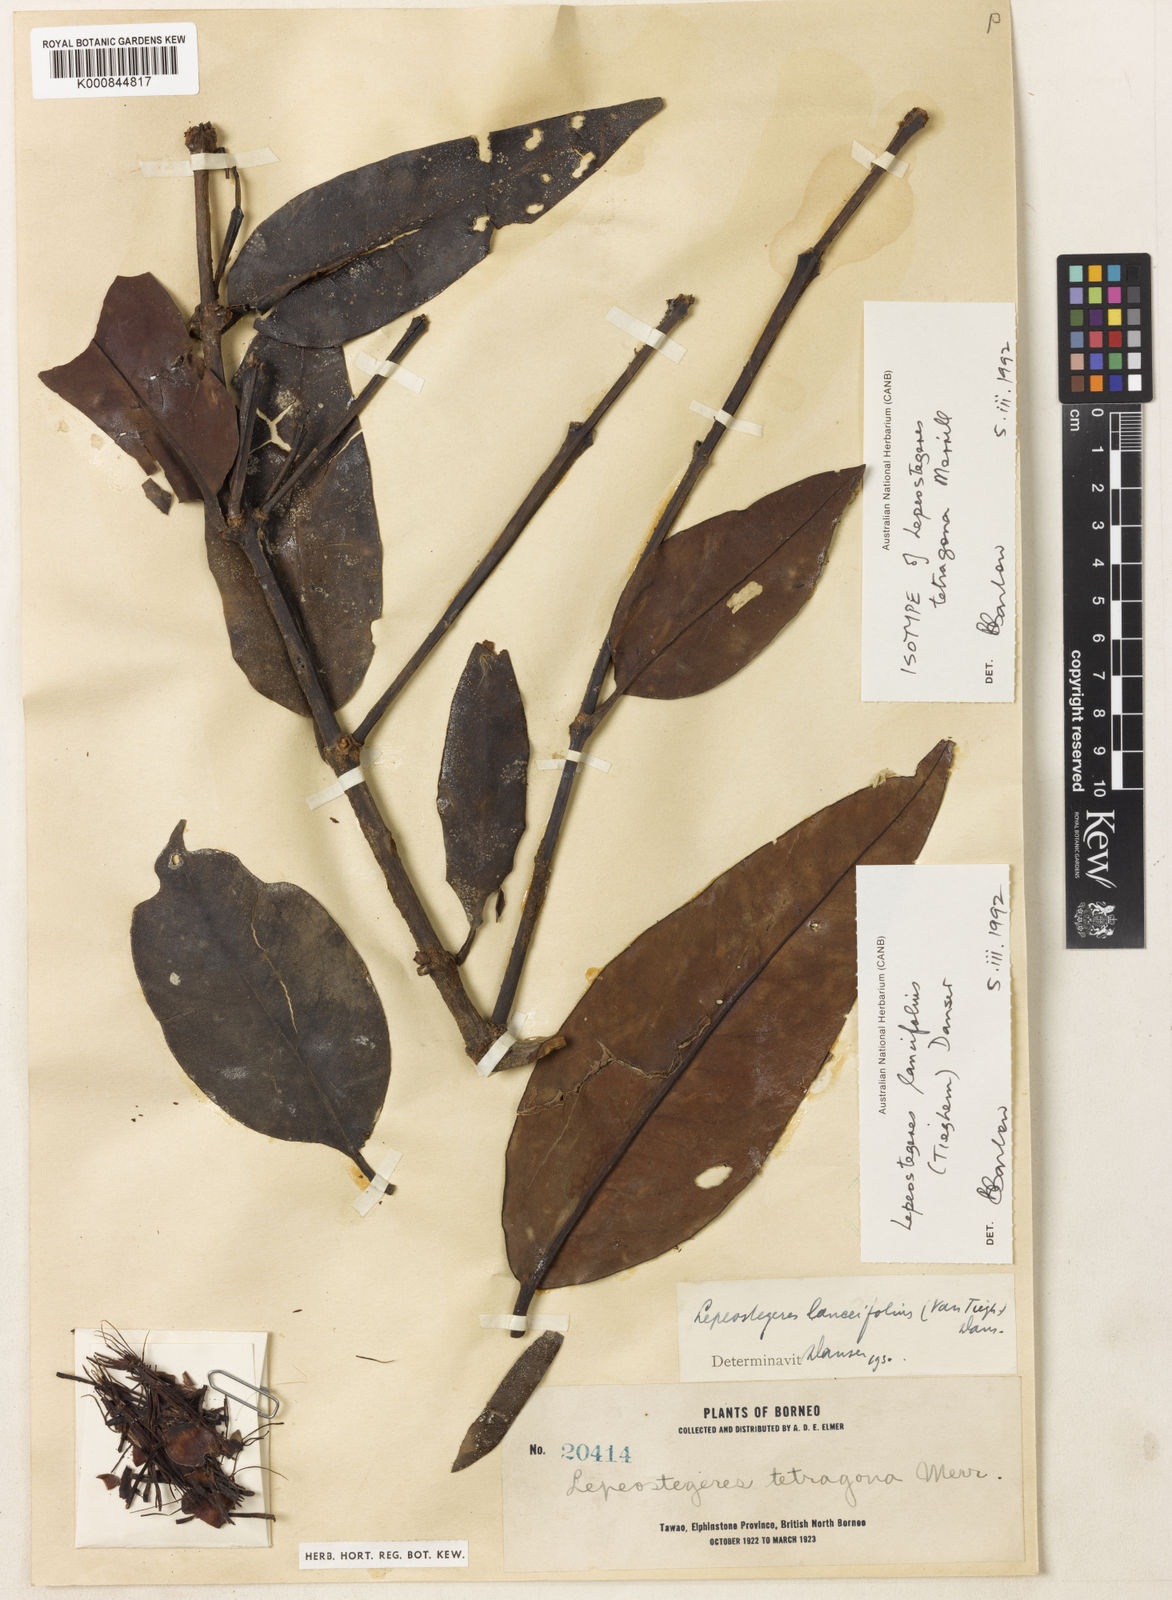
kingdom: Plantae
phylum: Tracheophyta
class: Magnoliopsida
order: Santalales
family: Loranthaceae
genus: Lepeostegeres
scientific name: Lepeostegeres
